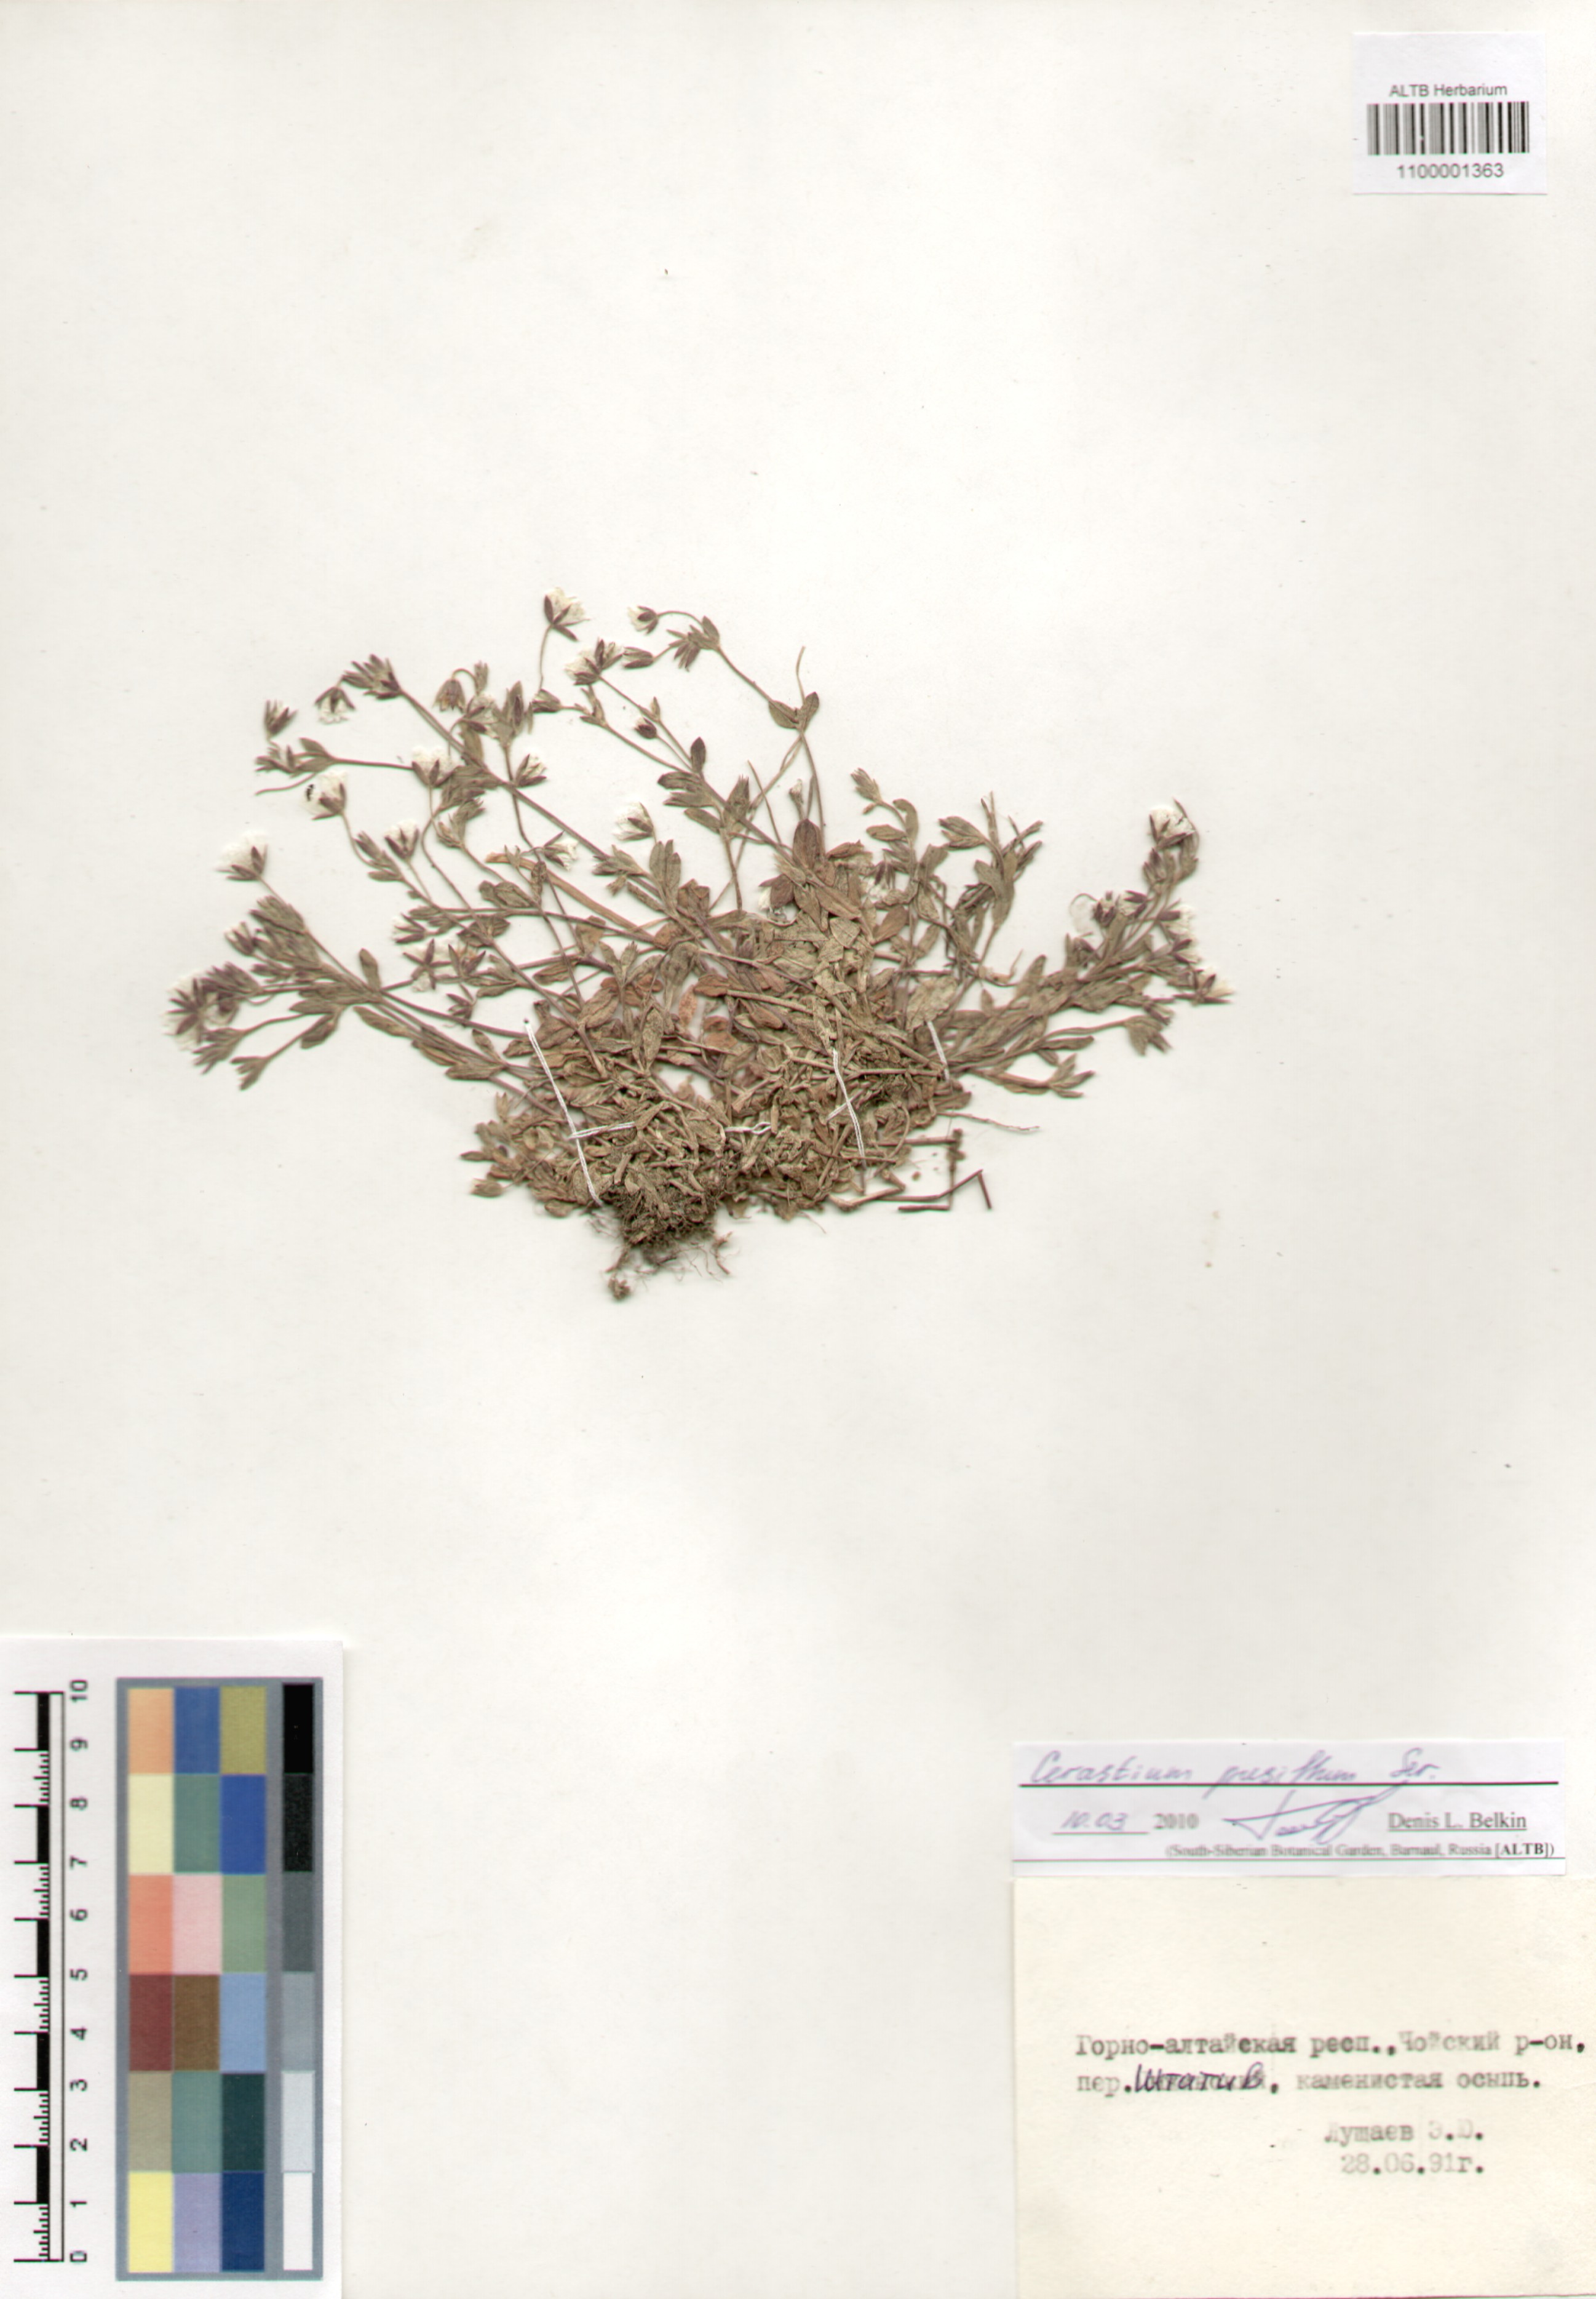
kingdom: Plantae
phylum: Tracheophyta
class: Magnoliopsida
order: Caryophyllales
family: Caryophyllaceae
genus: Cerastium
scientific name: Cerastium pusillum
